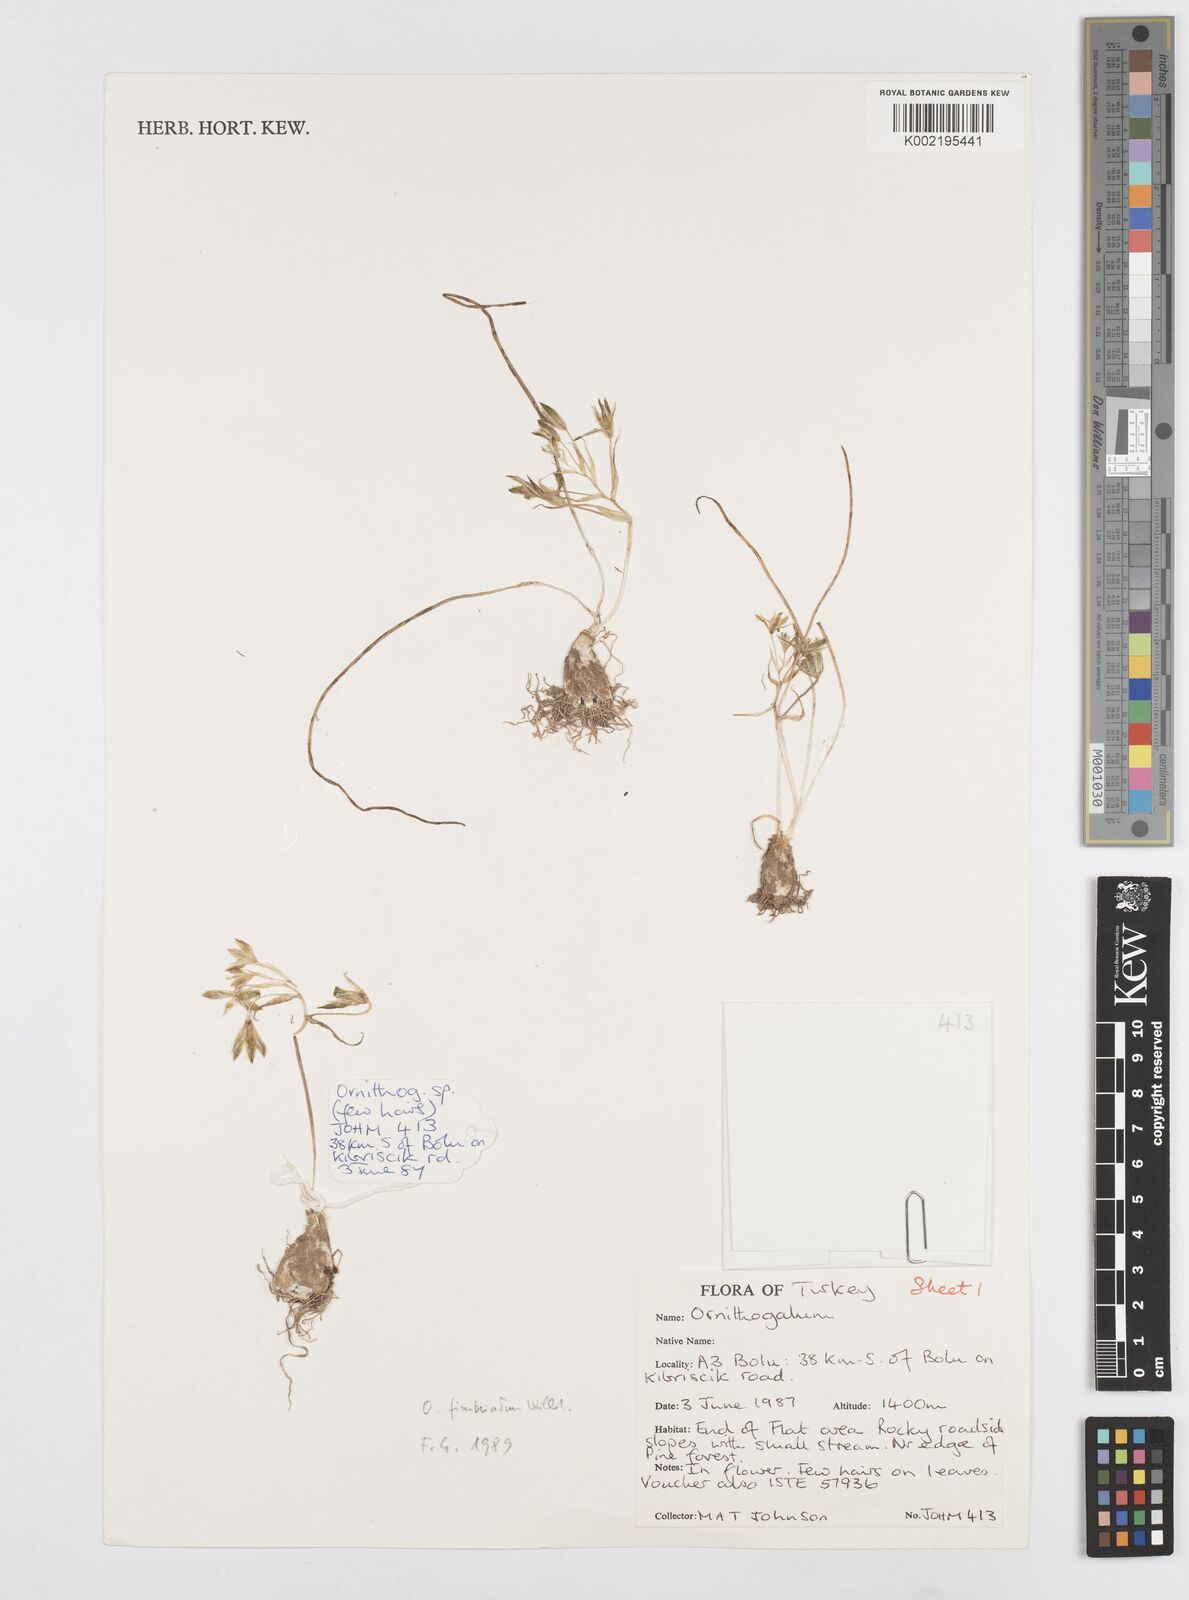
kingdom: Plantae
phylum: Tracheophyta
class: Liliopsida
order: Asparagales
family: Asparagaceae
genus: Ornithogalum
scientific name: Ornithogalum
